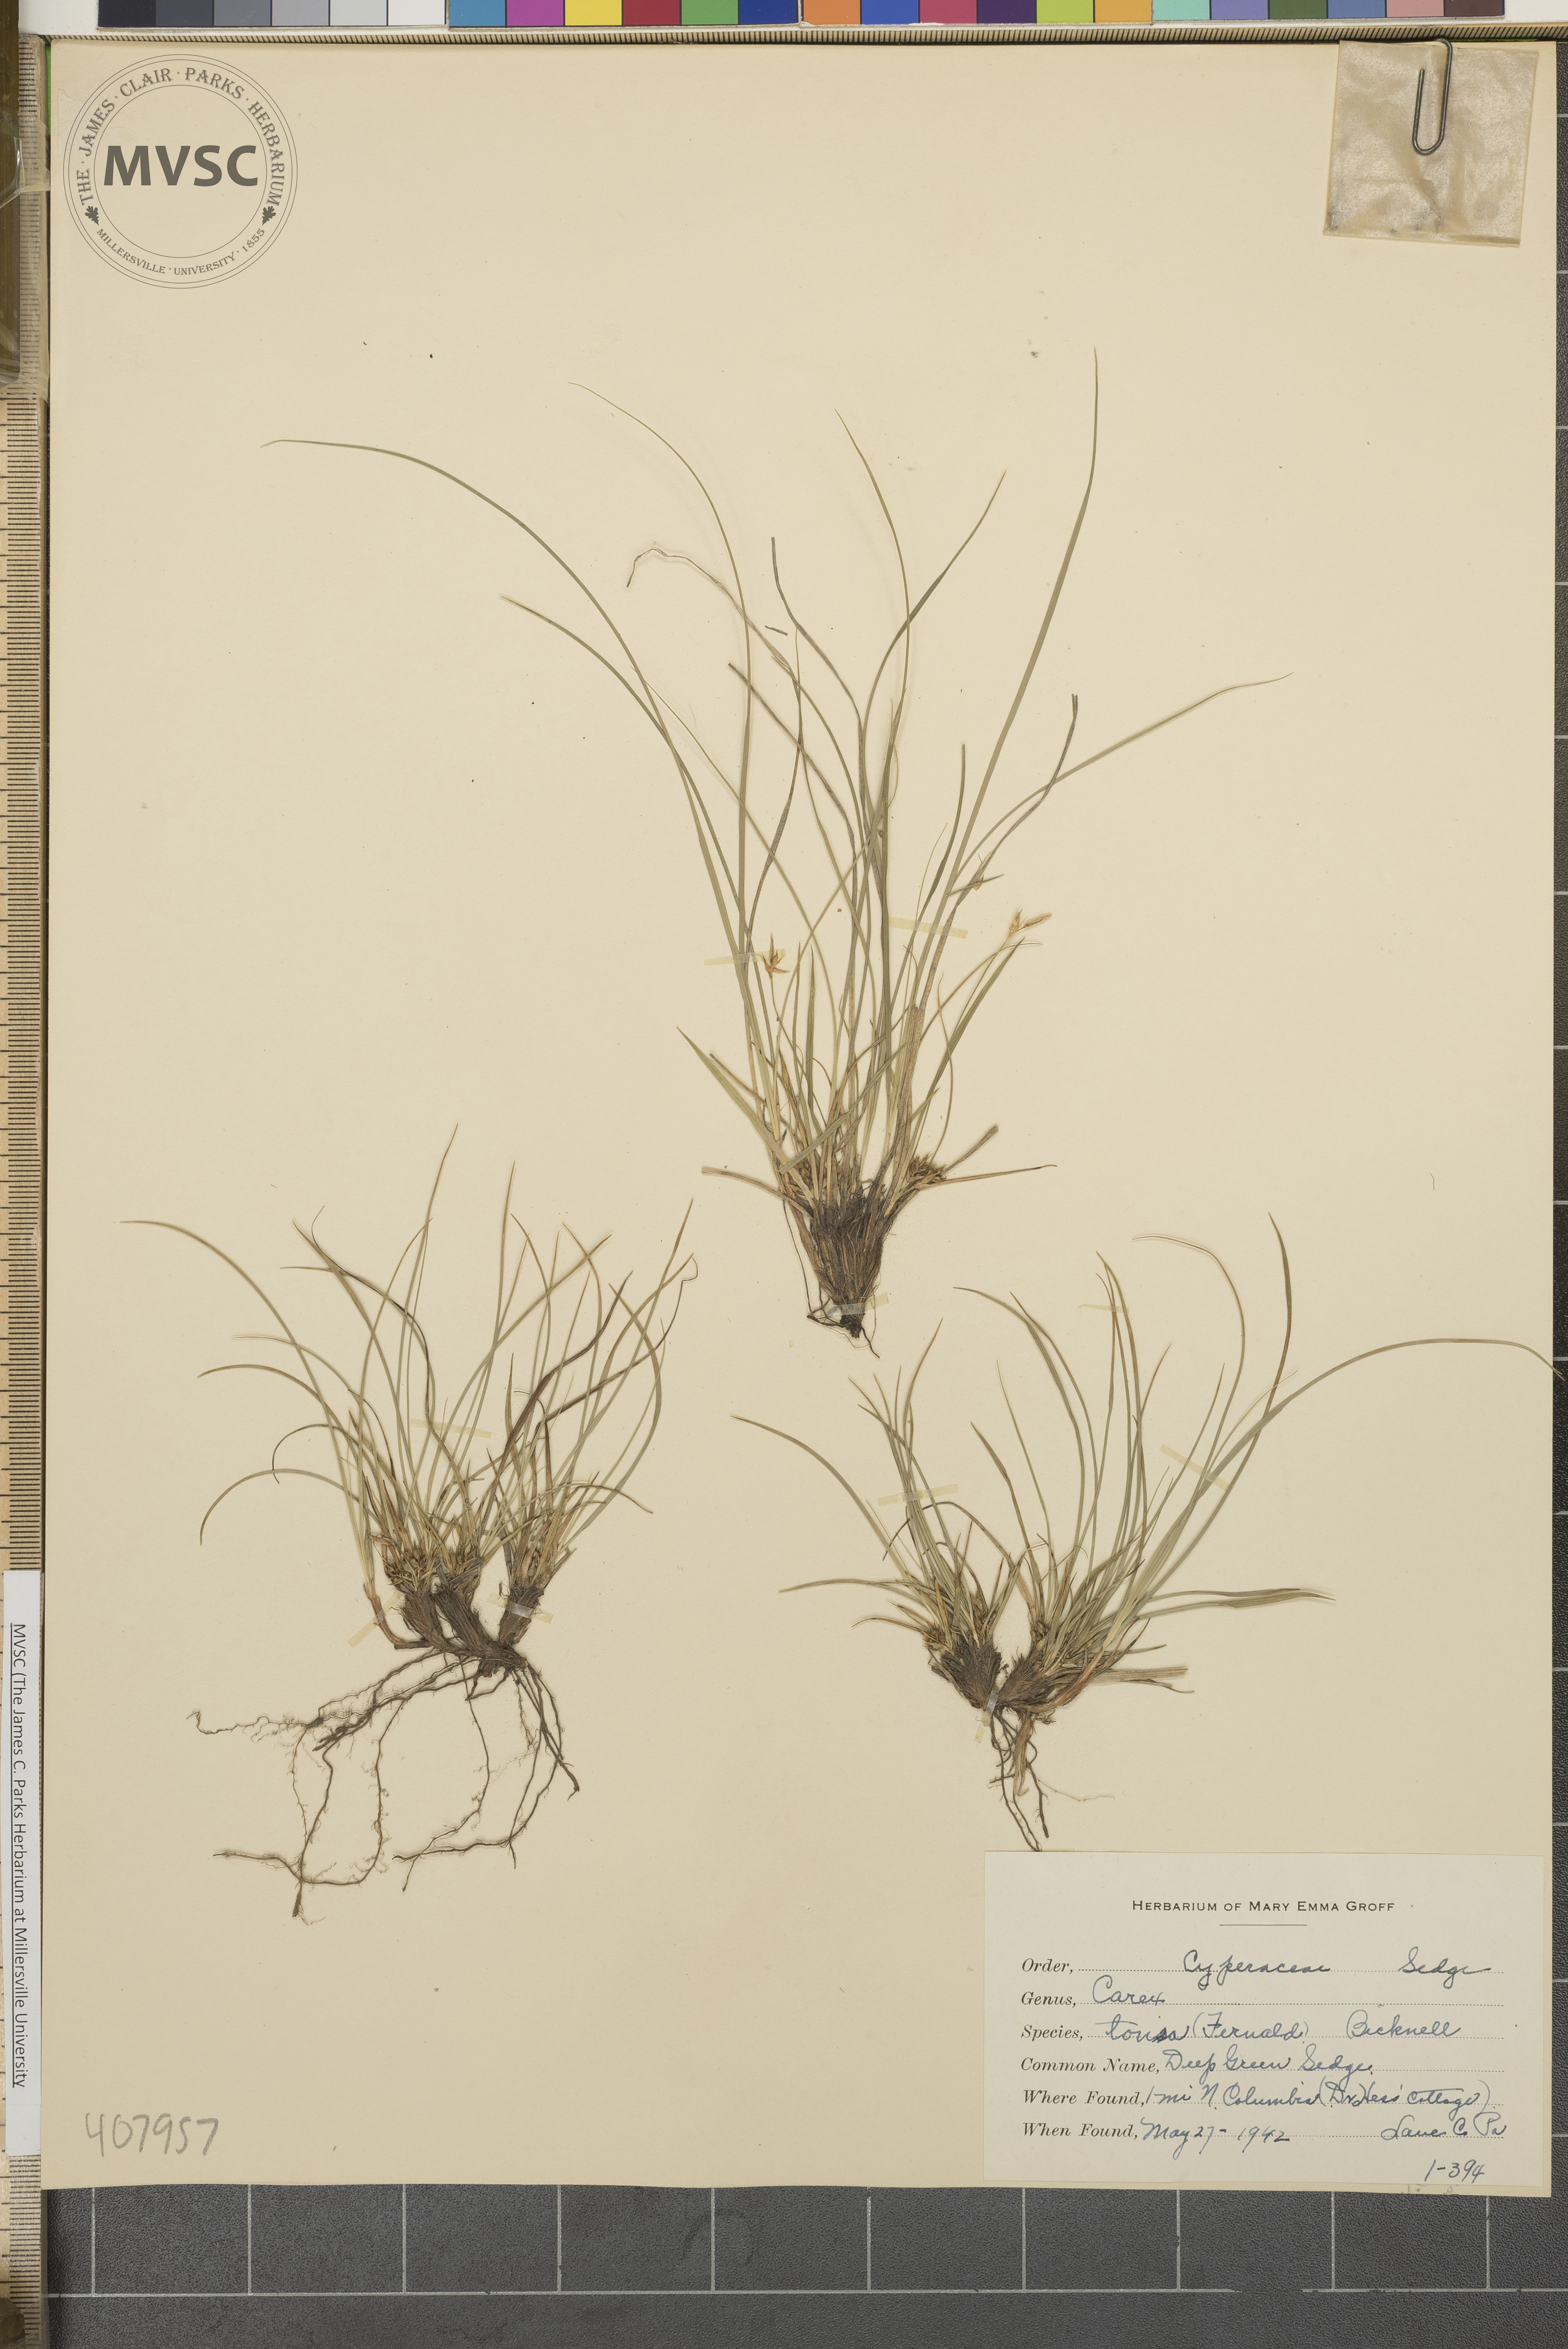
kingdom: Plantae
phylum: Tracheophyta
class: Liliopsida
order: Poales
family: Cyperaceae
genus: Carex
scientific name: Carex tonsa
